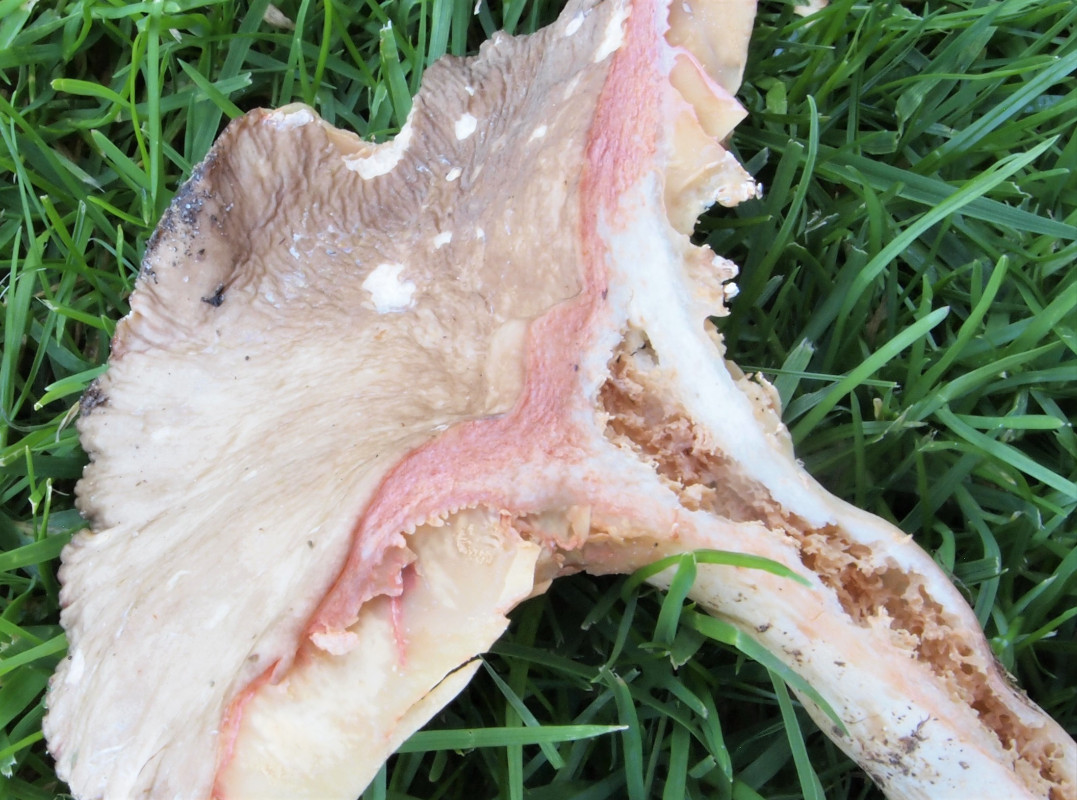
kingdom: Fungi
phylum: Basidiomycota
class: Agaricomycetes
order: Russulales
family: Russulaceae
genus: Lactarius
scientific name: Lactarius ruginosus
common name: gråbrun mælkehat
